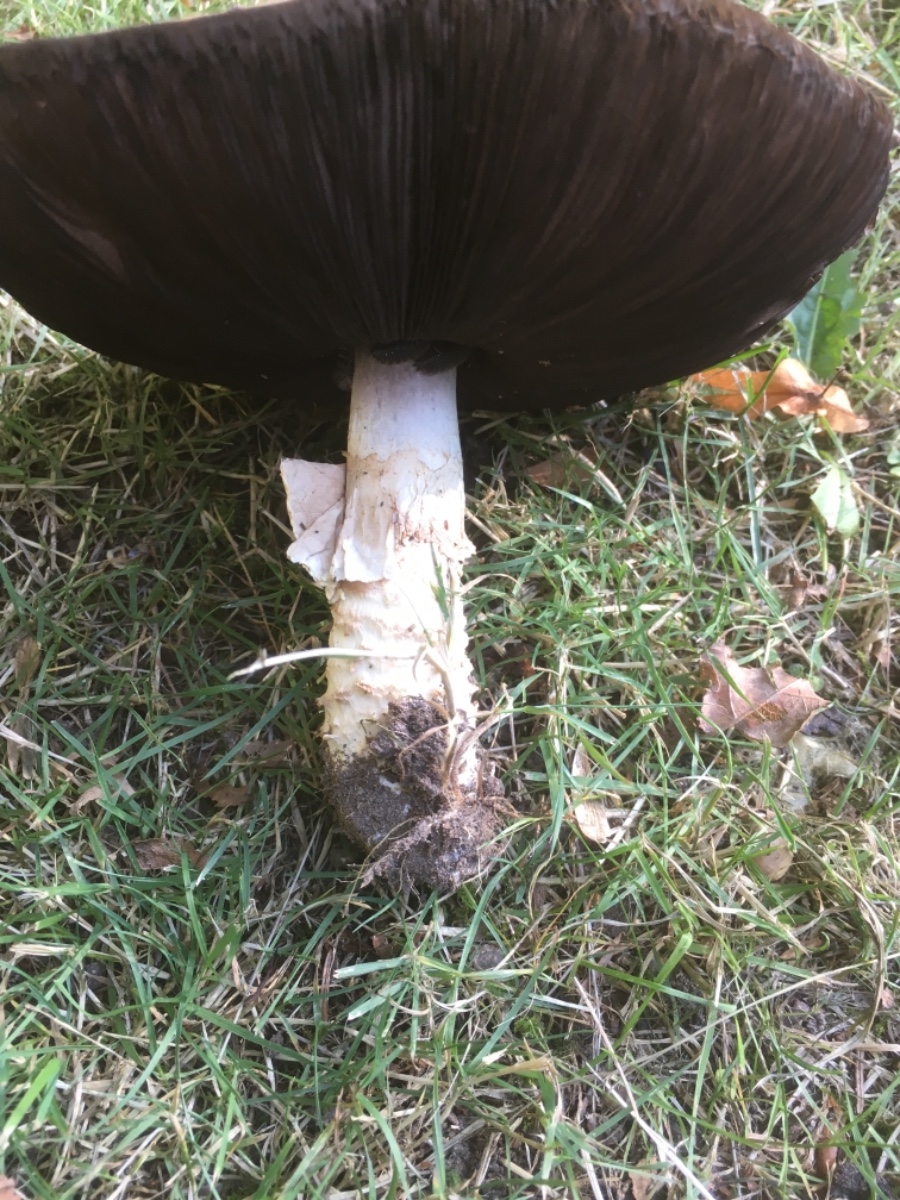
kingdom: Fungi
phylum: Basidiomycota
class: Agaricomycetes
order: Agaricales
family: Agaricaceae
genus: Agaricus
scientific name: Agaricus augustus
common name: prægtig champignon
